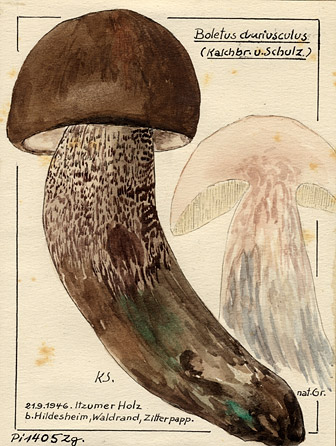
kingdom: Fungi
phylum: Basidiomycota
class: Agaricomycetes
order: Boletales
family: Boletaceae
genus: Leccinum
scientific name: Leccinum duriusculum
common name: Slate bolete
